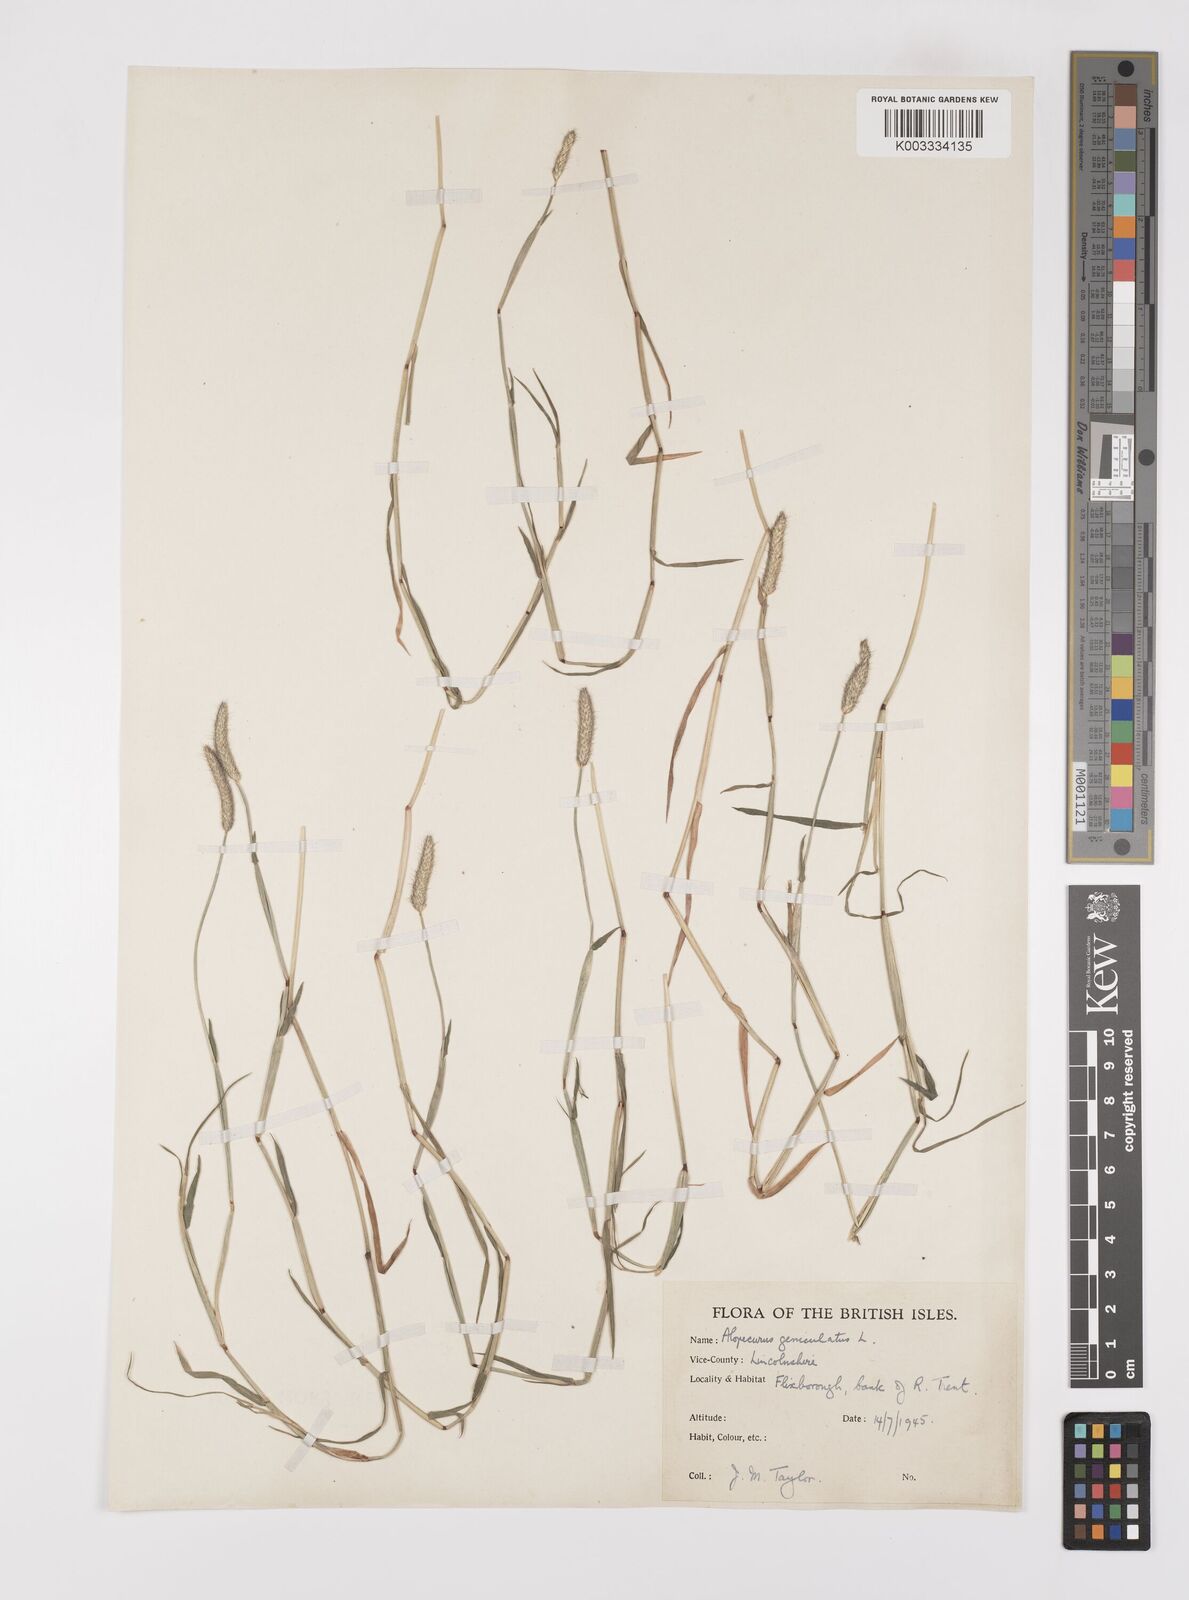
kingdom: Plantae
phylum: Tracheophyta
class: Liliopsida
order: Poales
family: Poaceae
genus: Alopecurus
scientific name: Alopecurus geniculatus
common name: Water foxtail
